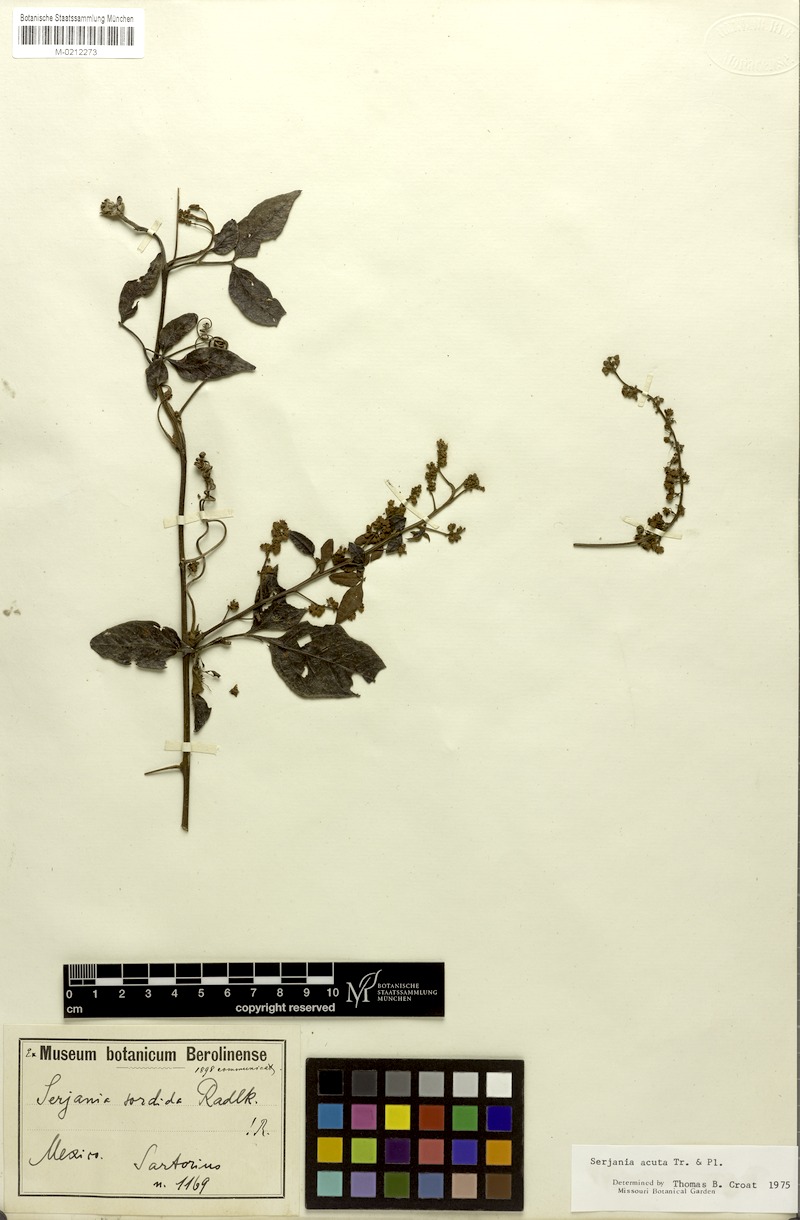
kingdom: Plantae
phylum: Tracheophyta
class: Magnoliopsida
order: Sapindales
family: Sapindaceae
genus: Serjania
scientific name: Serjania acuta
